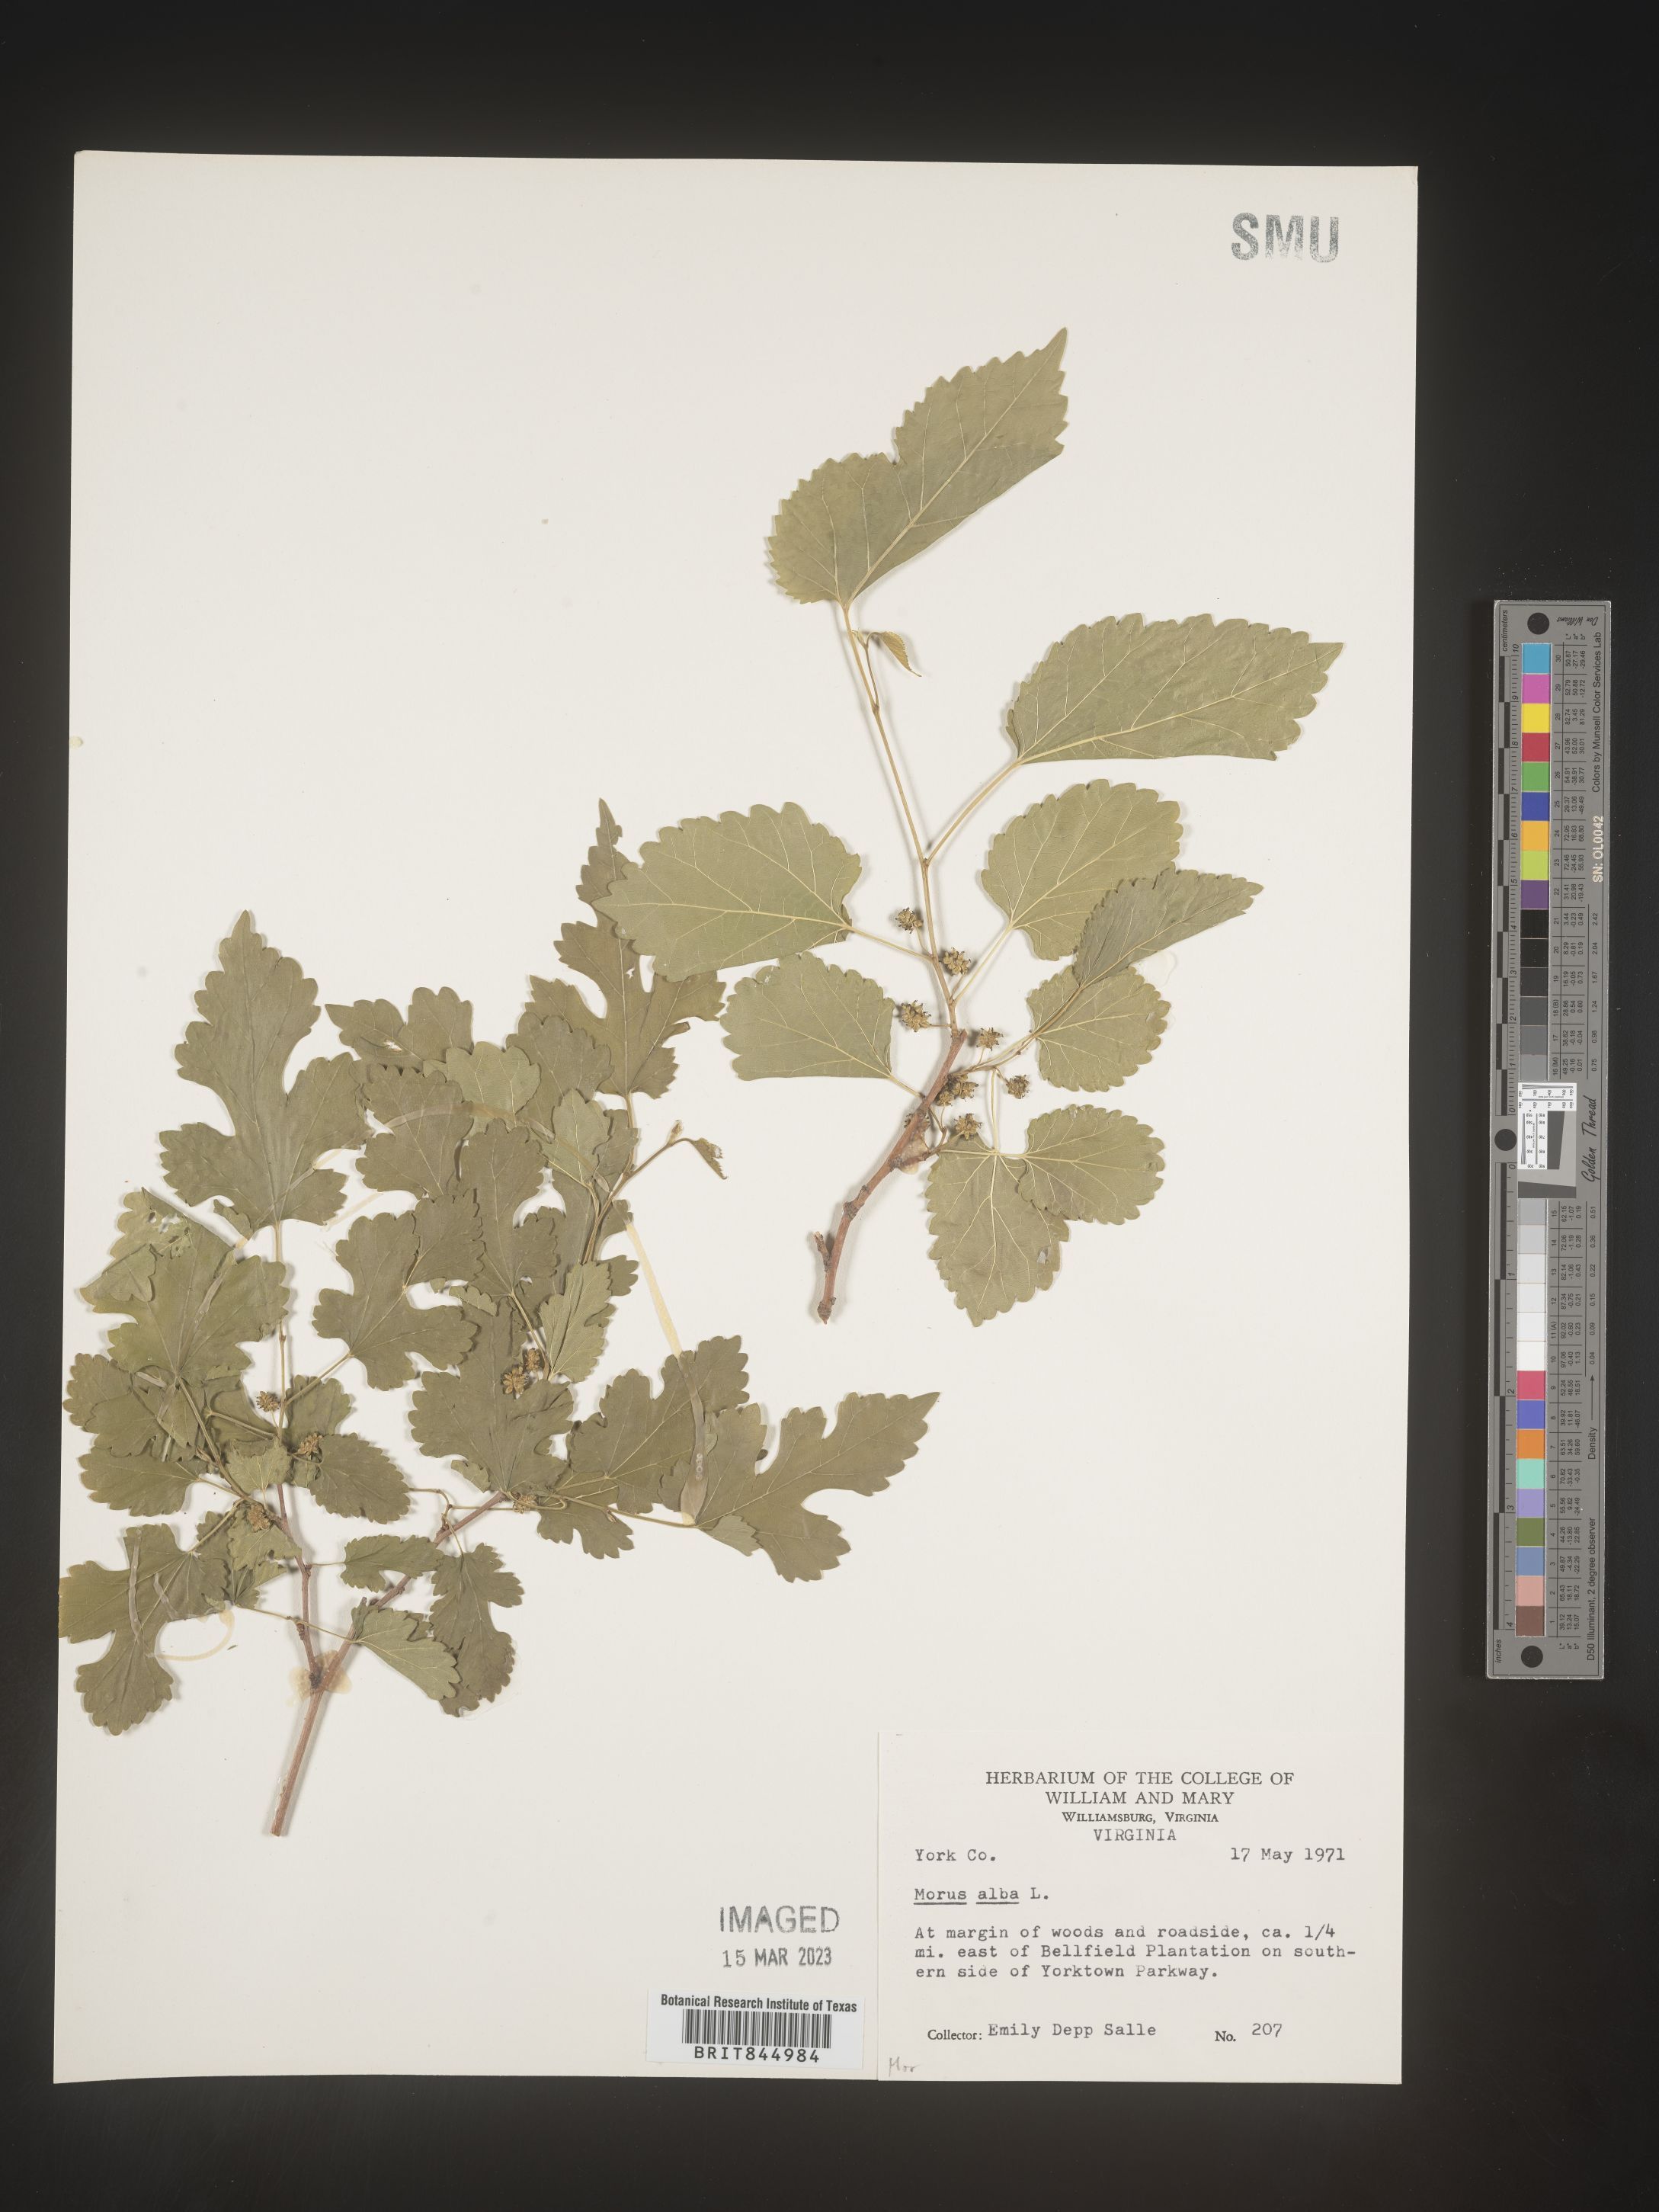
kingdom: Plantae
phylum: Tracheophyta
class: Magnoliopsida
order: Rosales
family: Moraceae
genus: Morus
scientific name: Morus alba
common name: White mulberry
